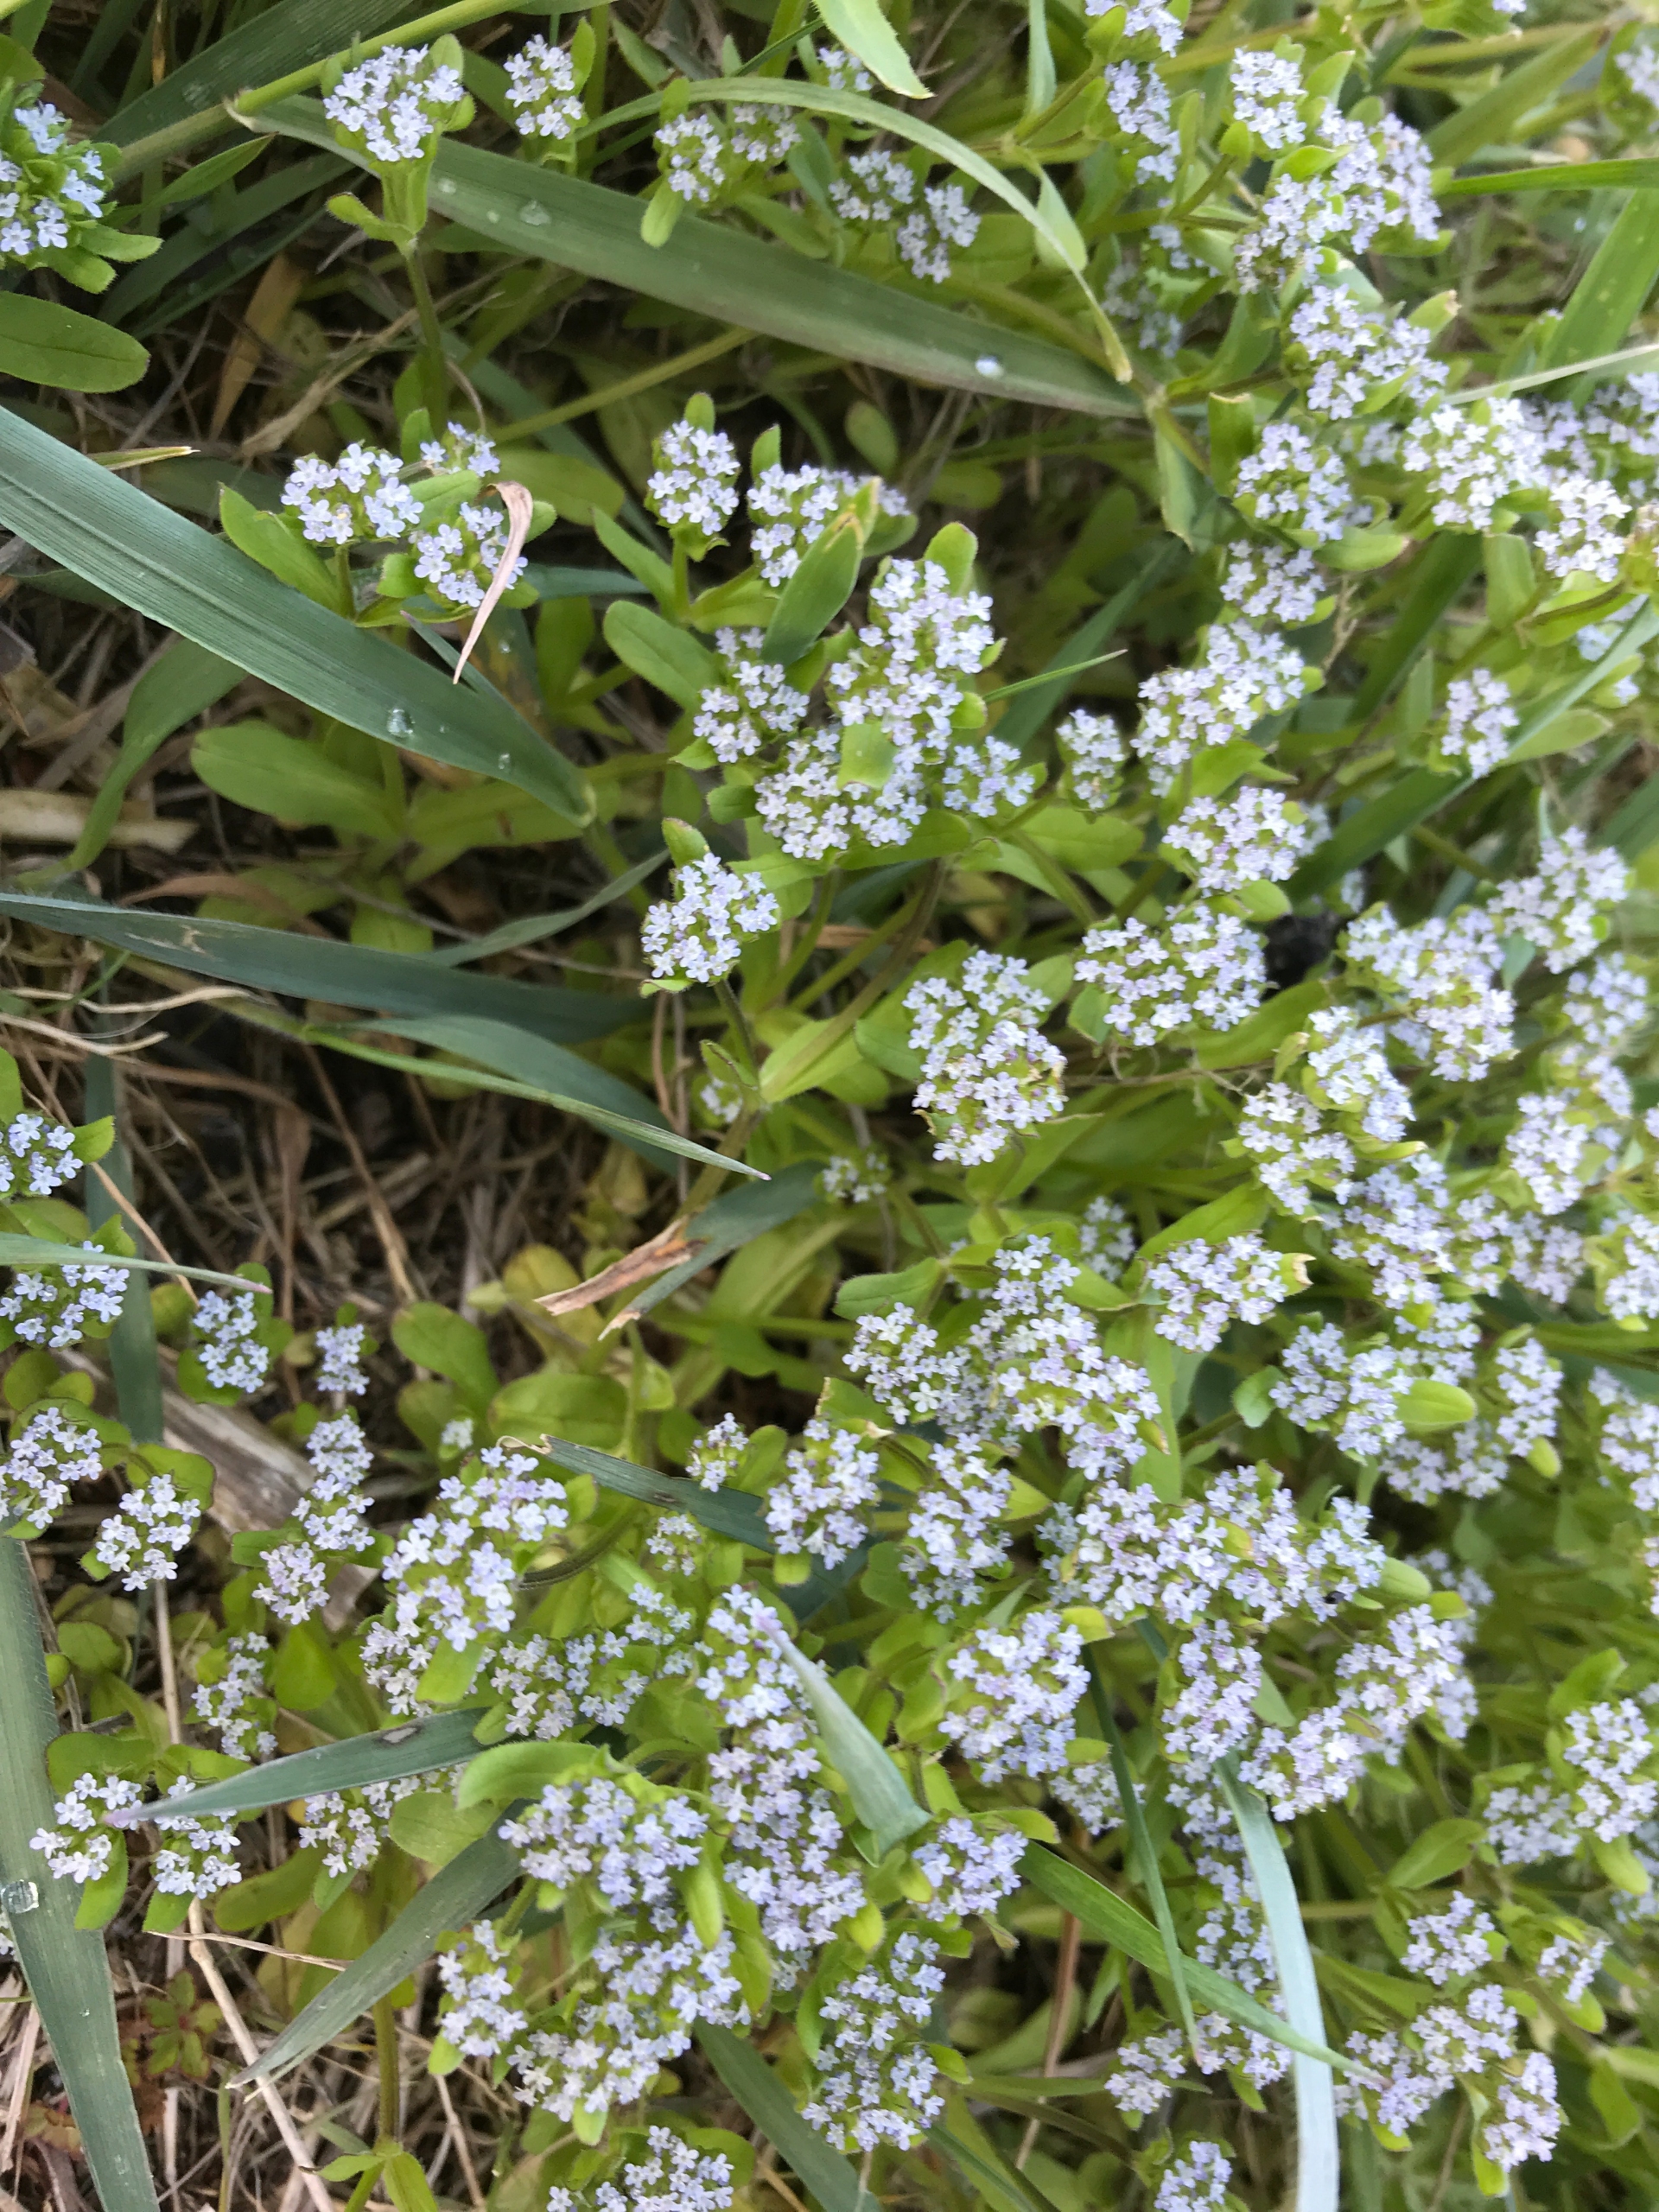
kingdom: Plantae
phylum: Tracheophyta
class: Magnoliopsida
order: Dipsacales
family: Caprifoliaceae
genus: Valerianella
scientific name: Valerianella locusta
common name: Tandfri vårsalat
